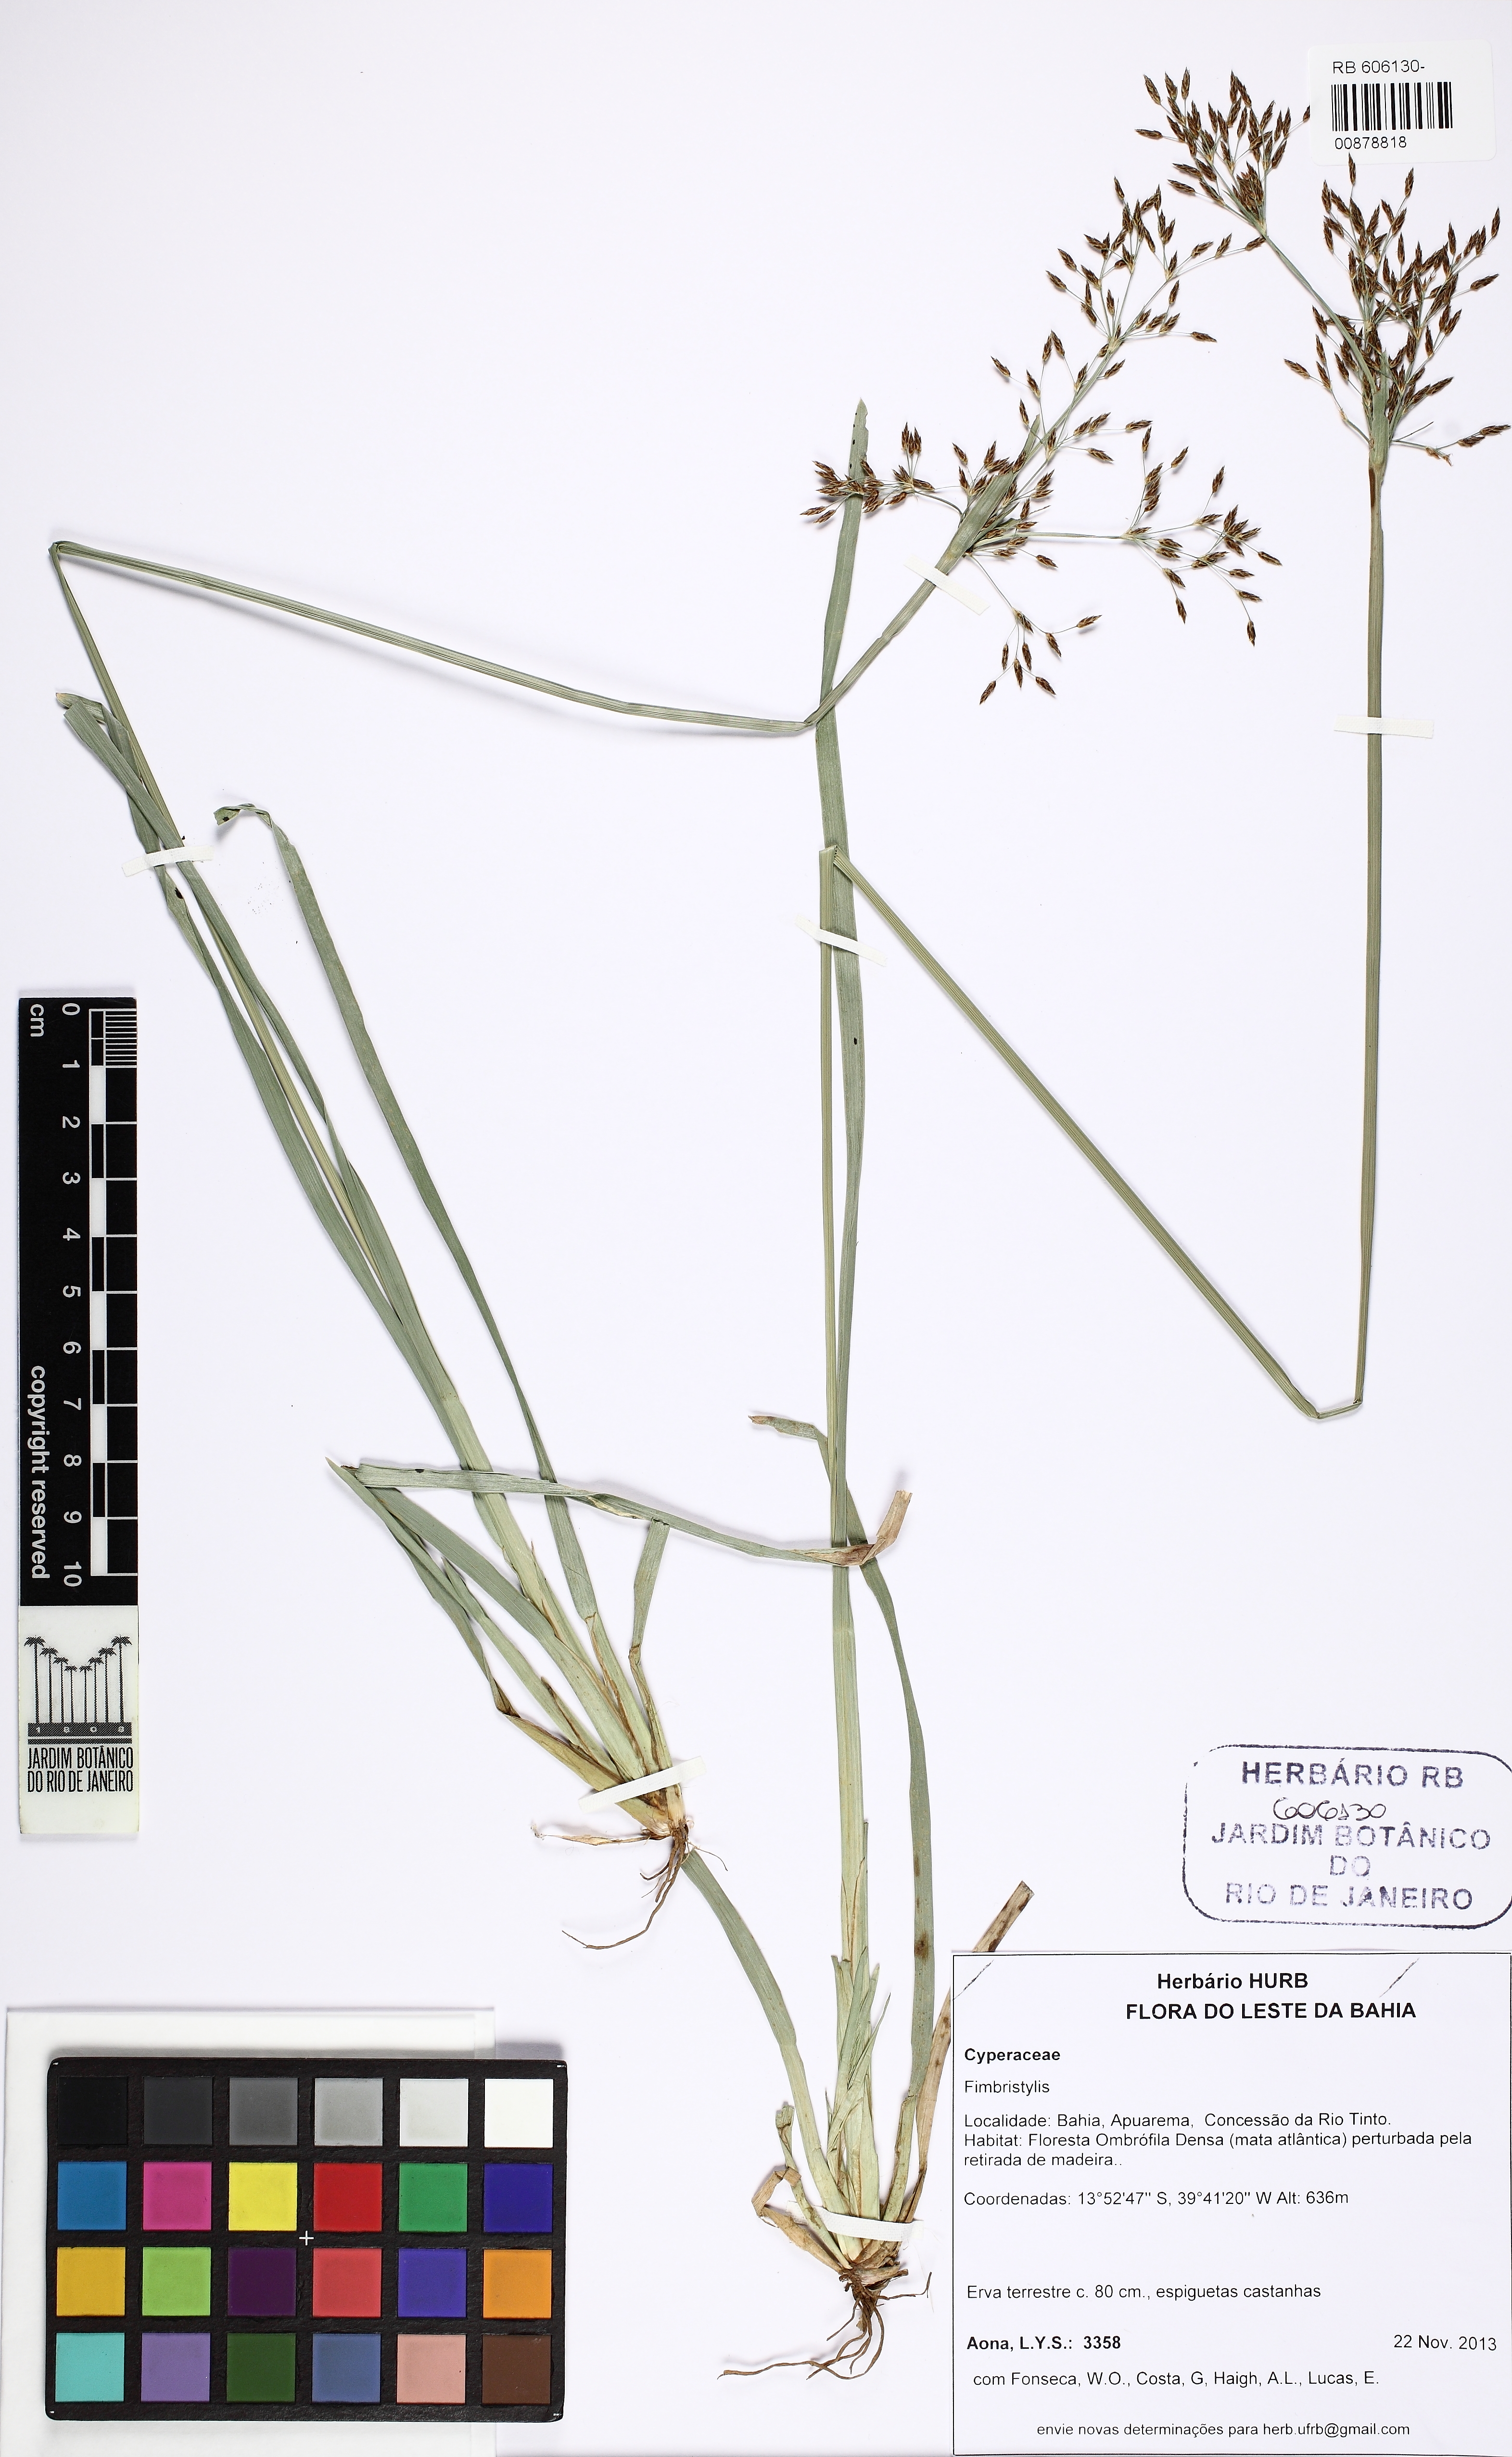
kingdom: Plantae
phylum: Tracheophyta
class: Liliopsida
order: Poales
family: Cyperaceae
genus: Fimbristylis
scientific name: Fimbristylis complanata
